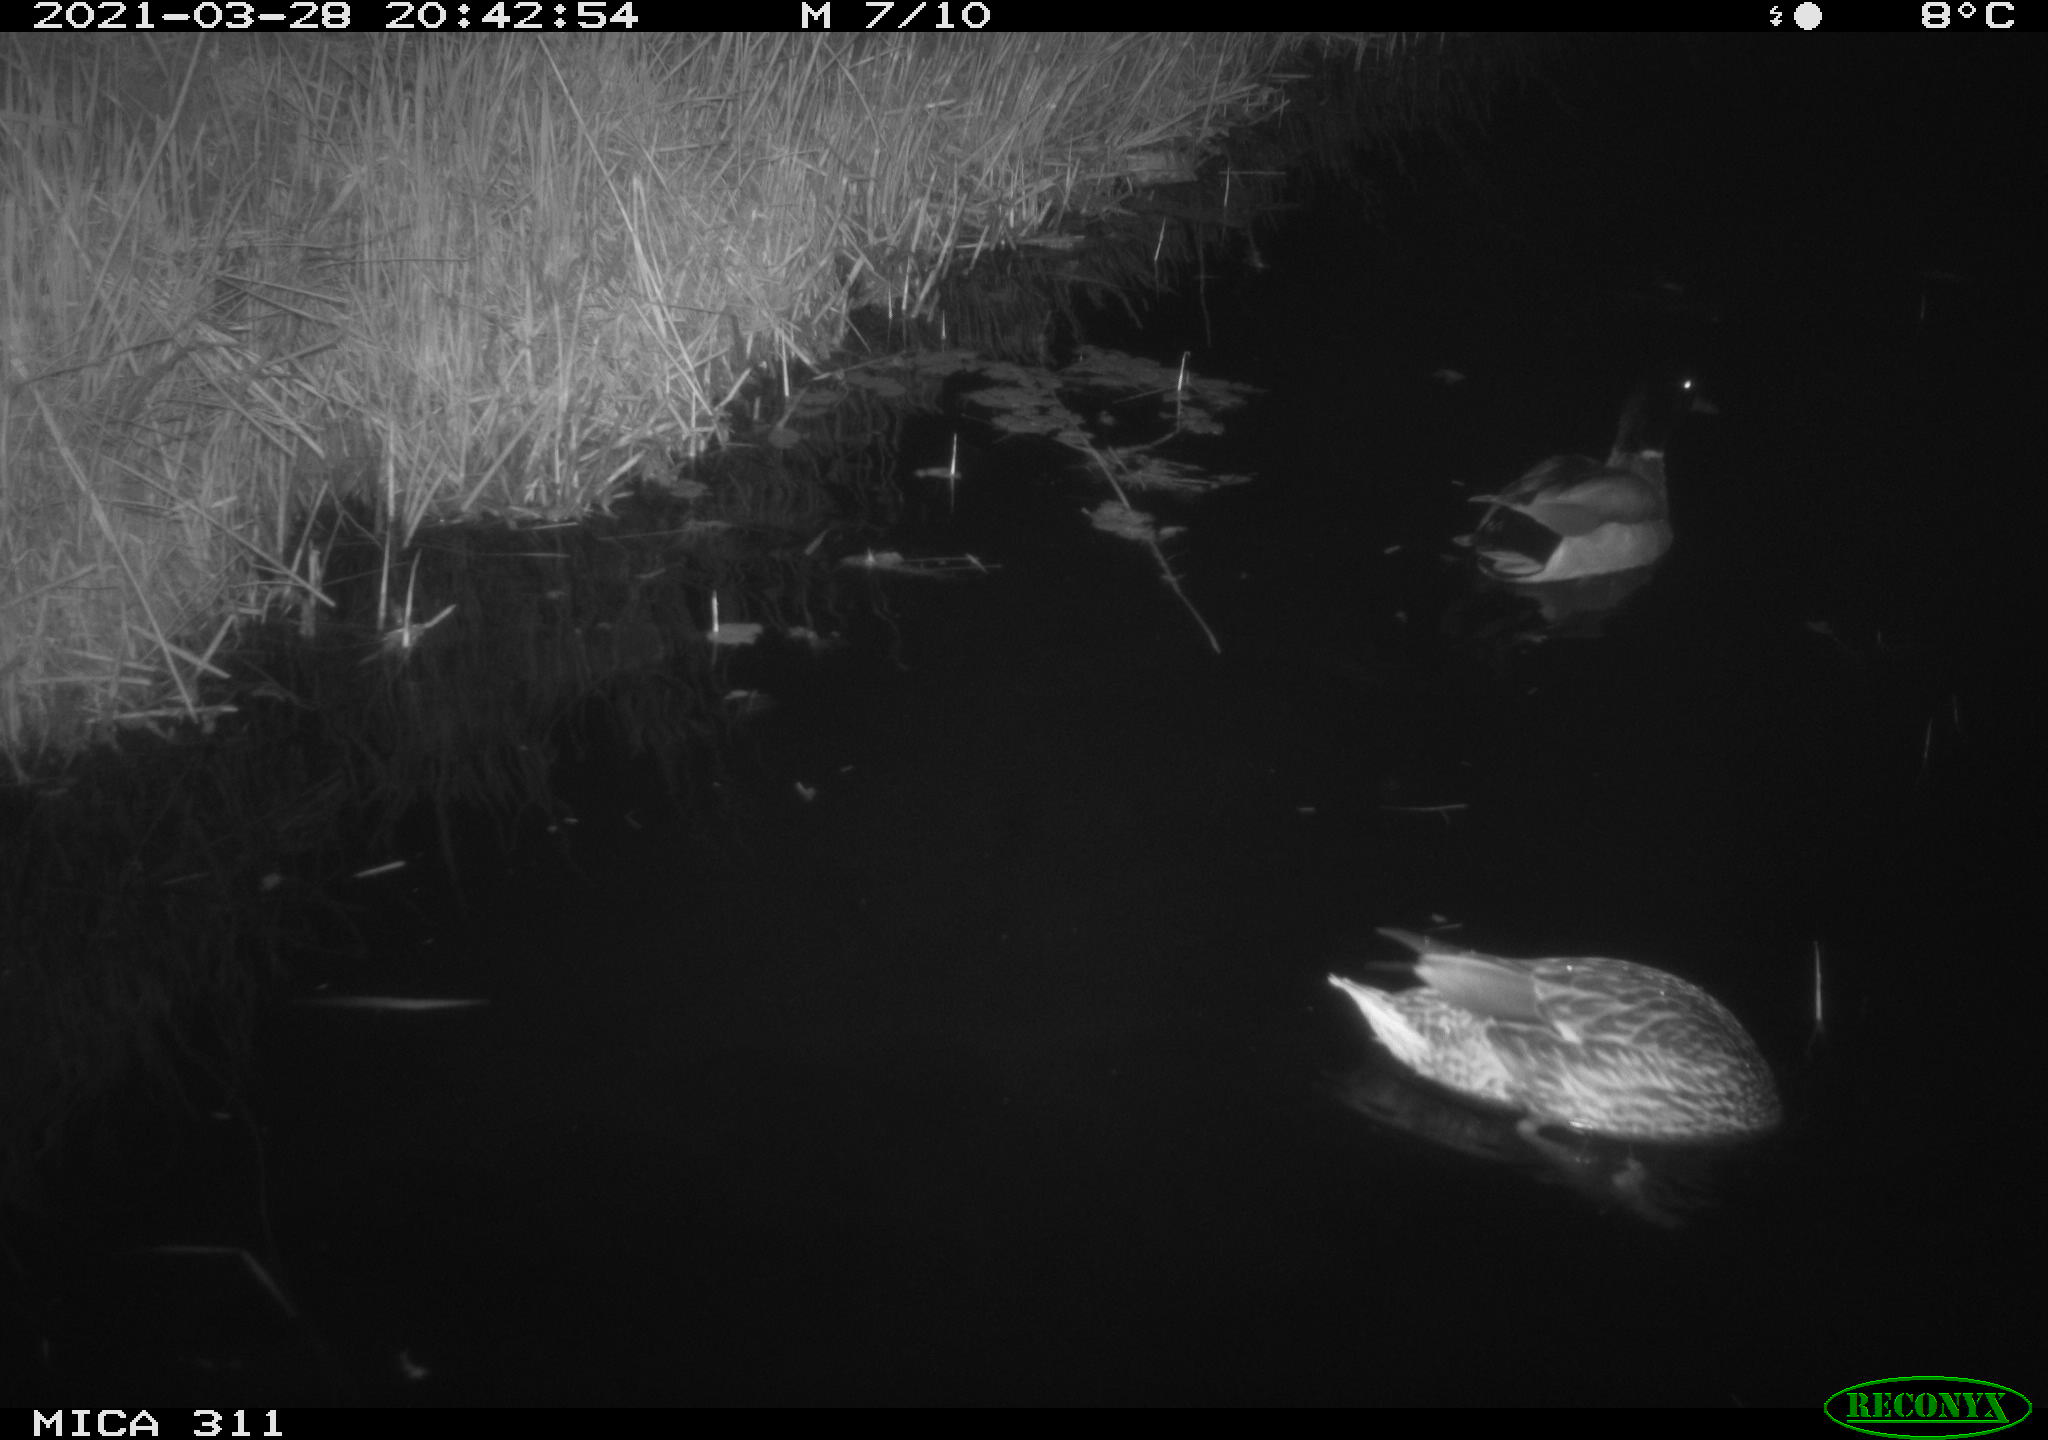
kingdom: Animalia
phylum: Chordata
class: Aves
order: Anseriformes
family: Anatidae
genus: Anas
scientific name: Anas
